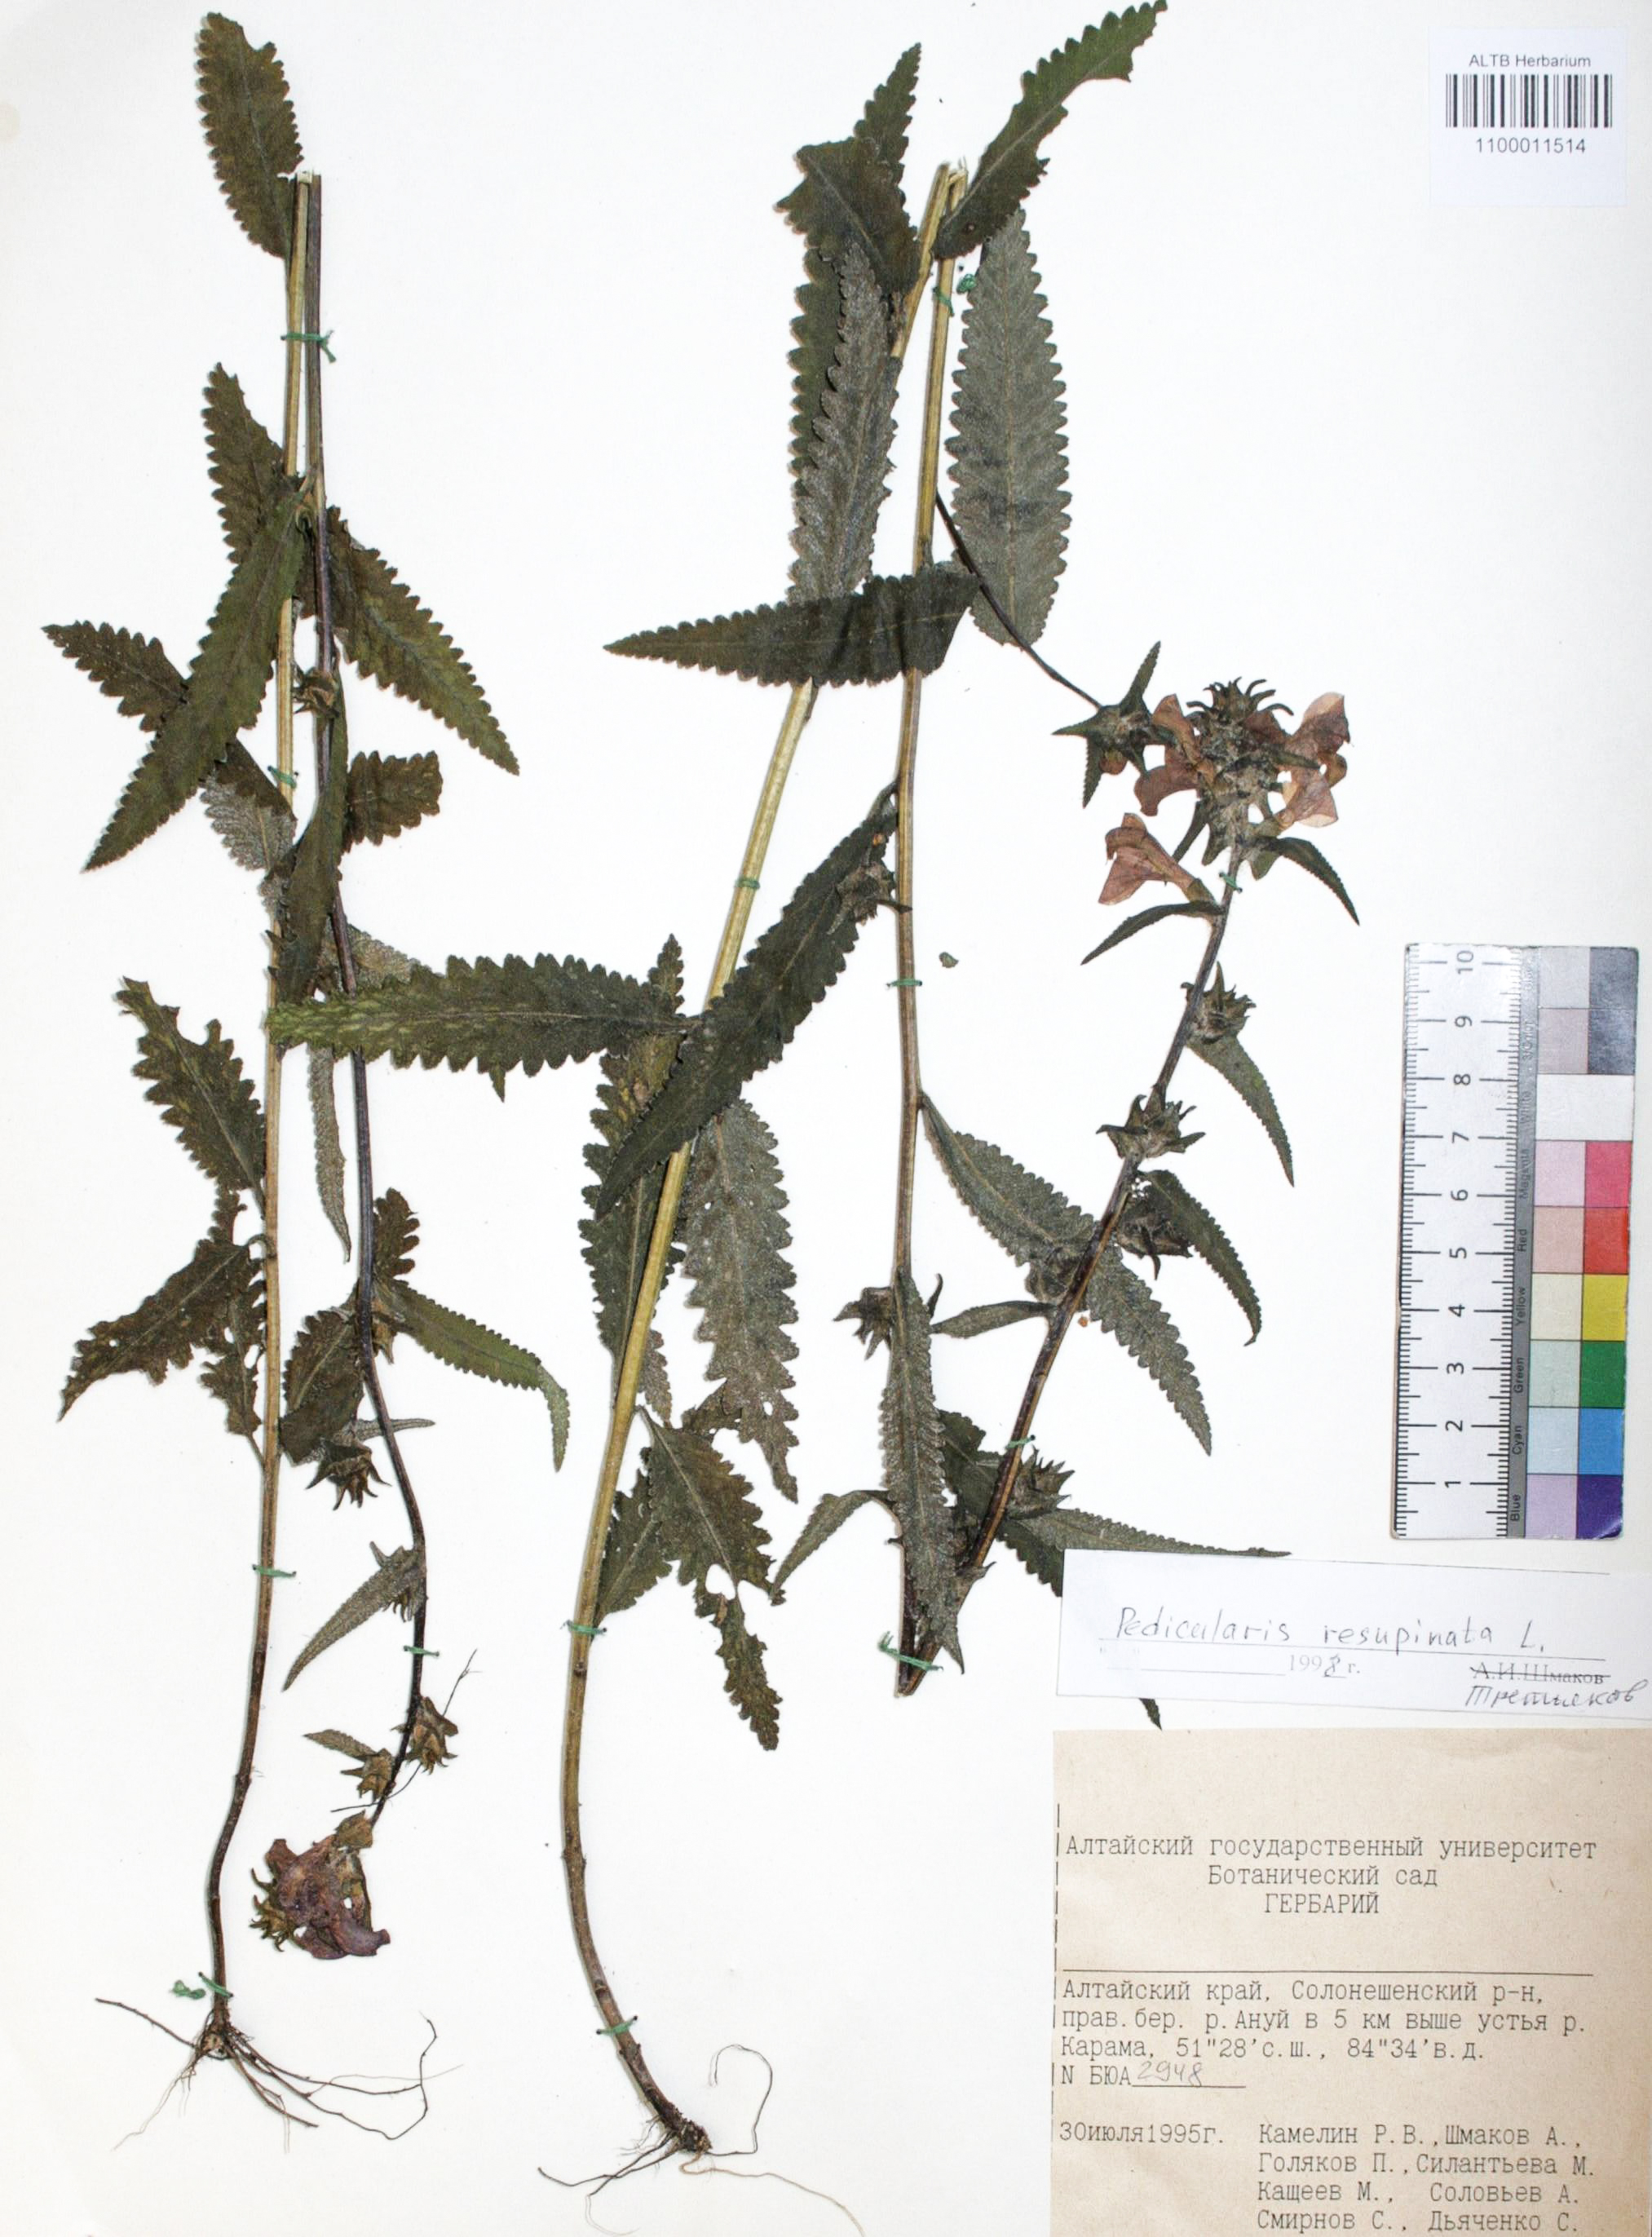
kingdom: Plantae
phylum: Tracheophyta
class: Magnoliopsida
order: Lamiales
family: Orobanchaceae
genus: Pedicularis
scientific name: Pedicularis resupinata
